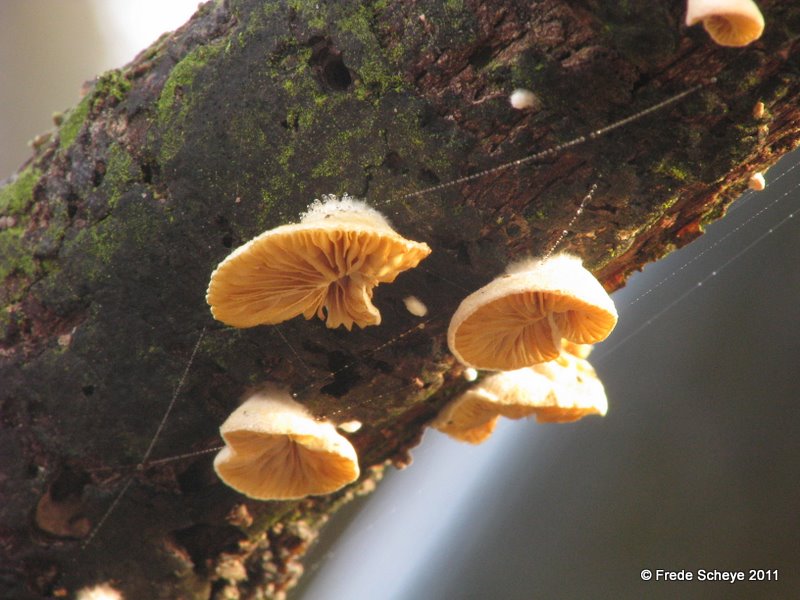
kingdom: Fungi
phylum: Basidiomycota
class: Agaricomycetes
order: Agaricales
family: Crepidotaceae
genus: Crepidotus
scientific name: Crepidotus cesatii
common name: almindelig muslingesvamp
